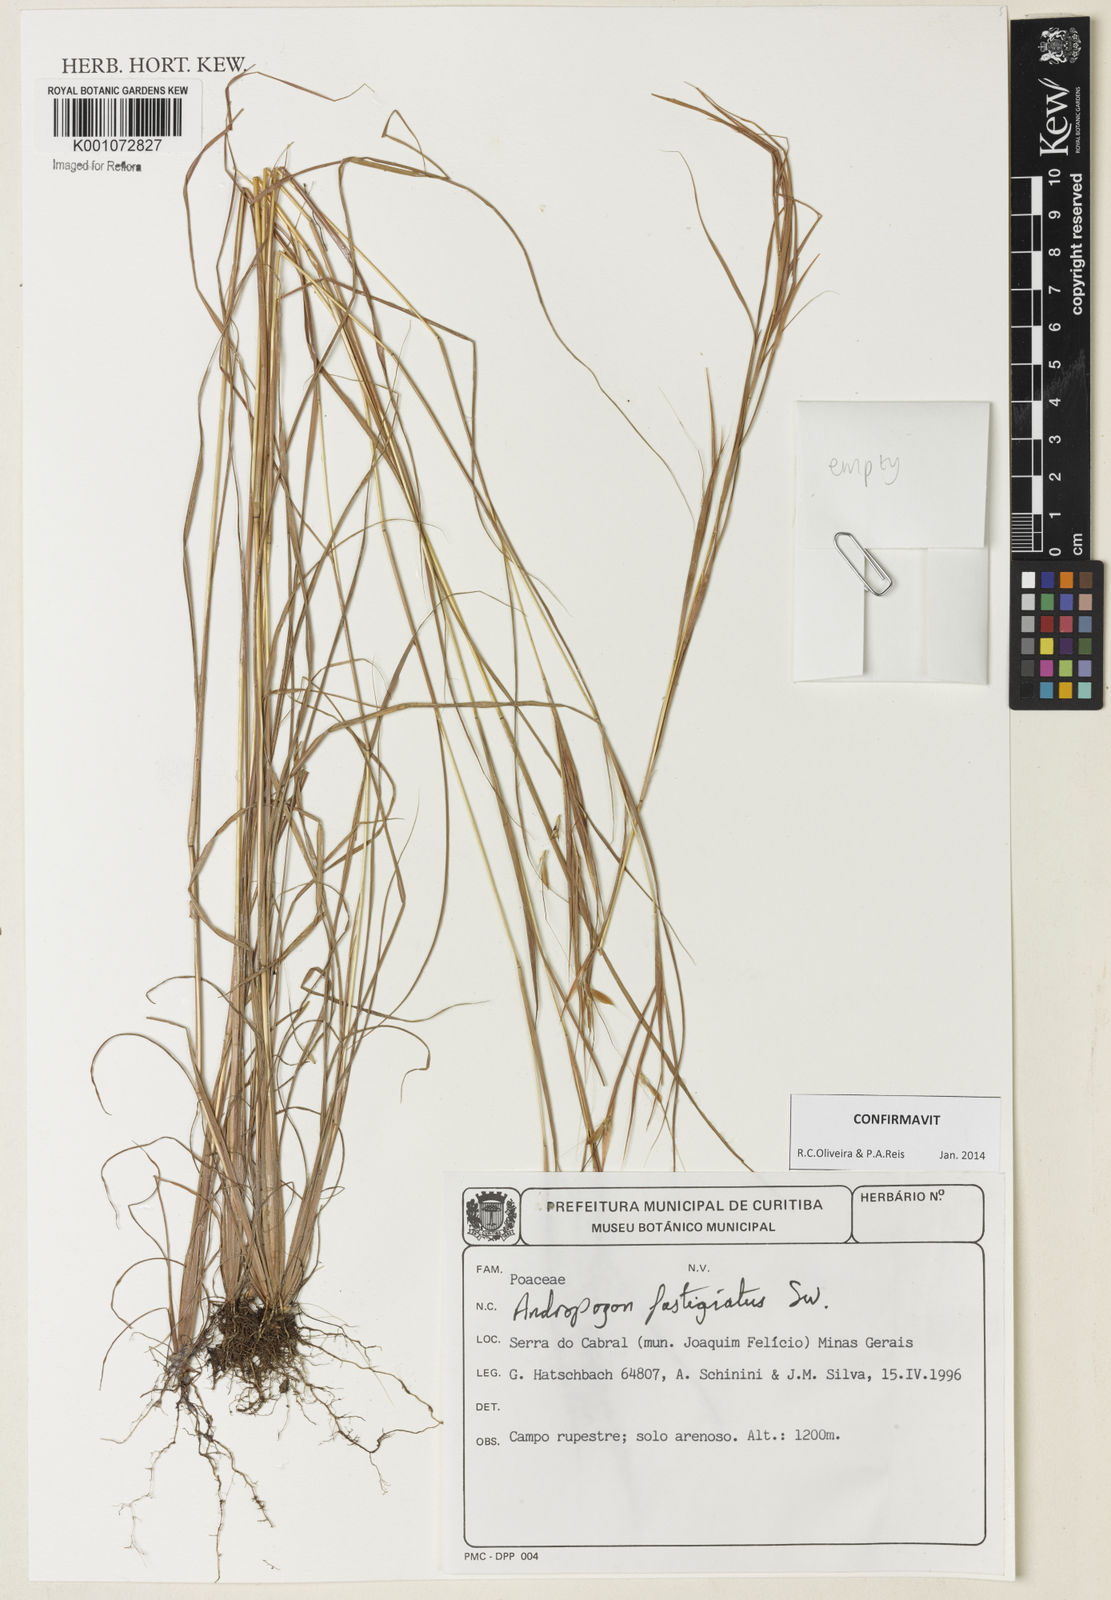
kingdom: Plantae
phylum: Tracheophyta
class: Liliopsida
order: Poales
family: Poaceae
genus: Diectomis
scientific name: Diectomis fastigiata
